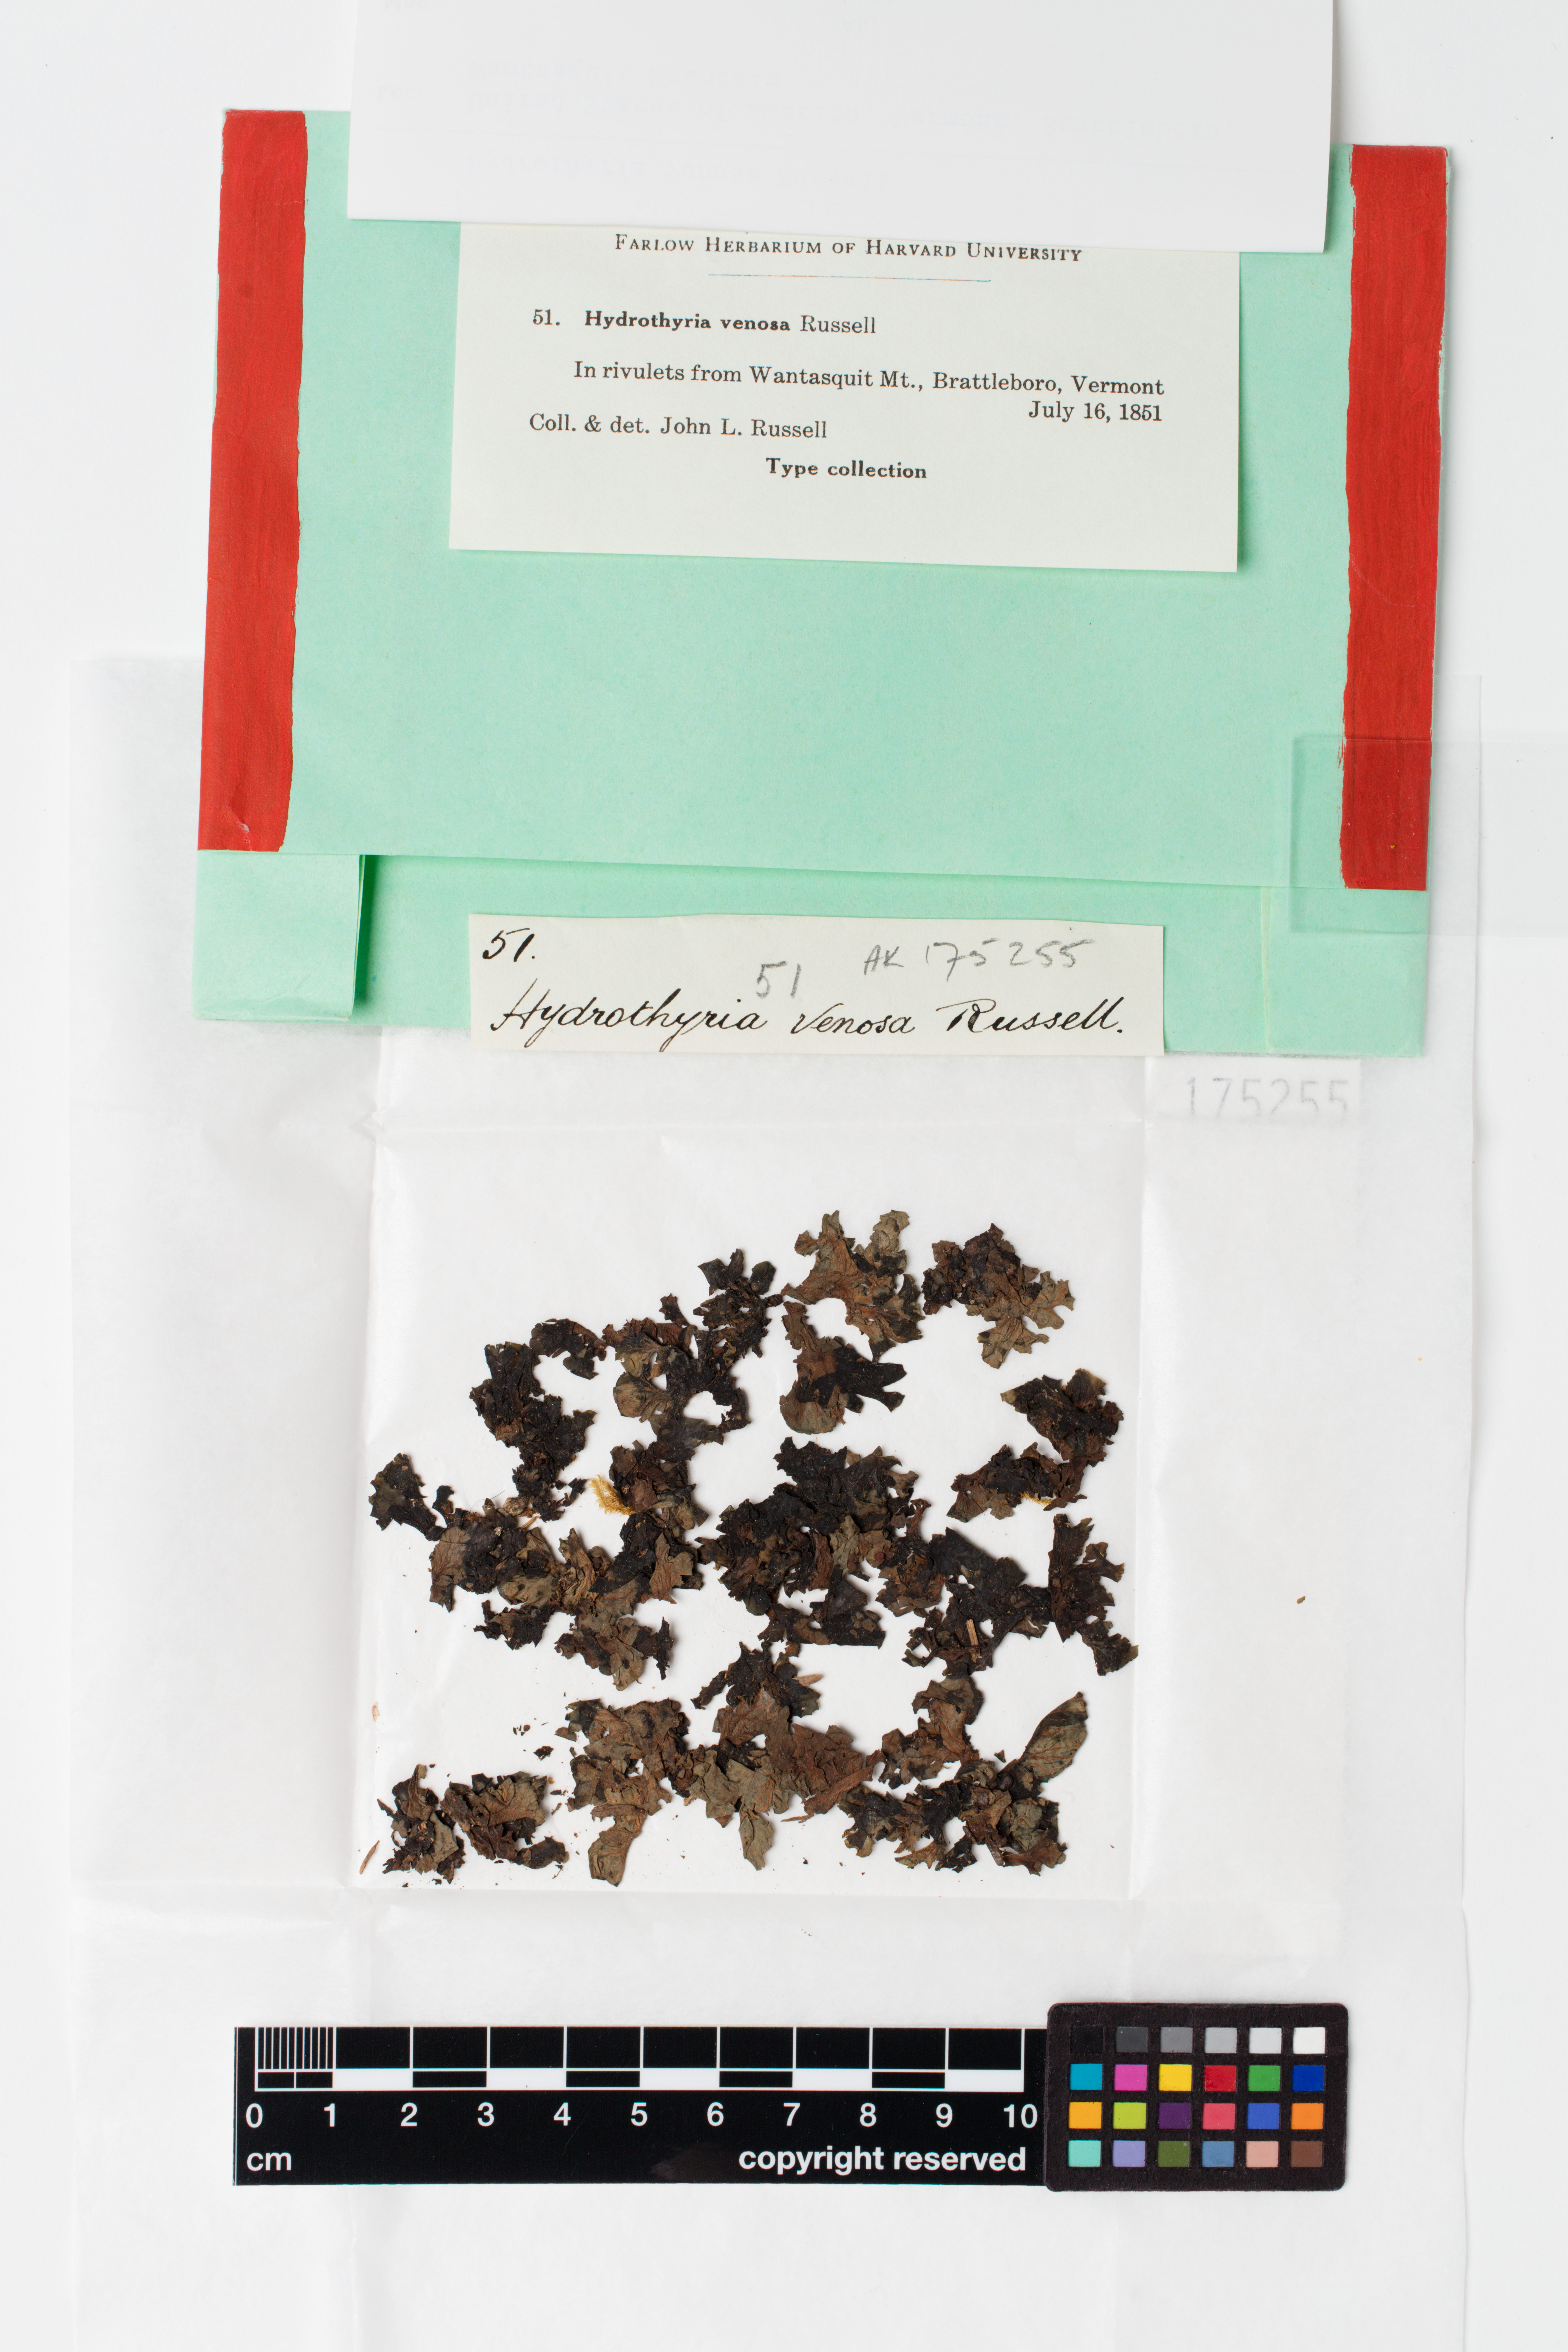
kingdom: Fungi
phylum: Ascomycota
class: Lecanoromycetes
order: Peltigerales
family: Peltigeraceae
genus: Peltigera
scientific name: Peltigera hydrothyria
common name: Aquatic pelt lichen
